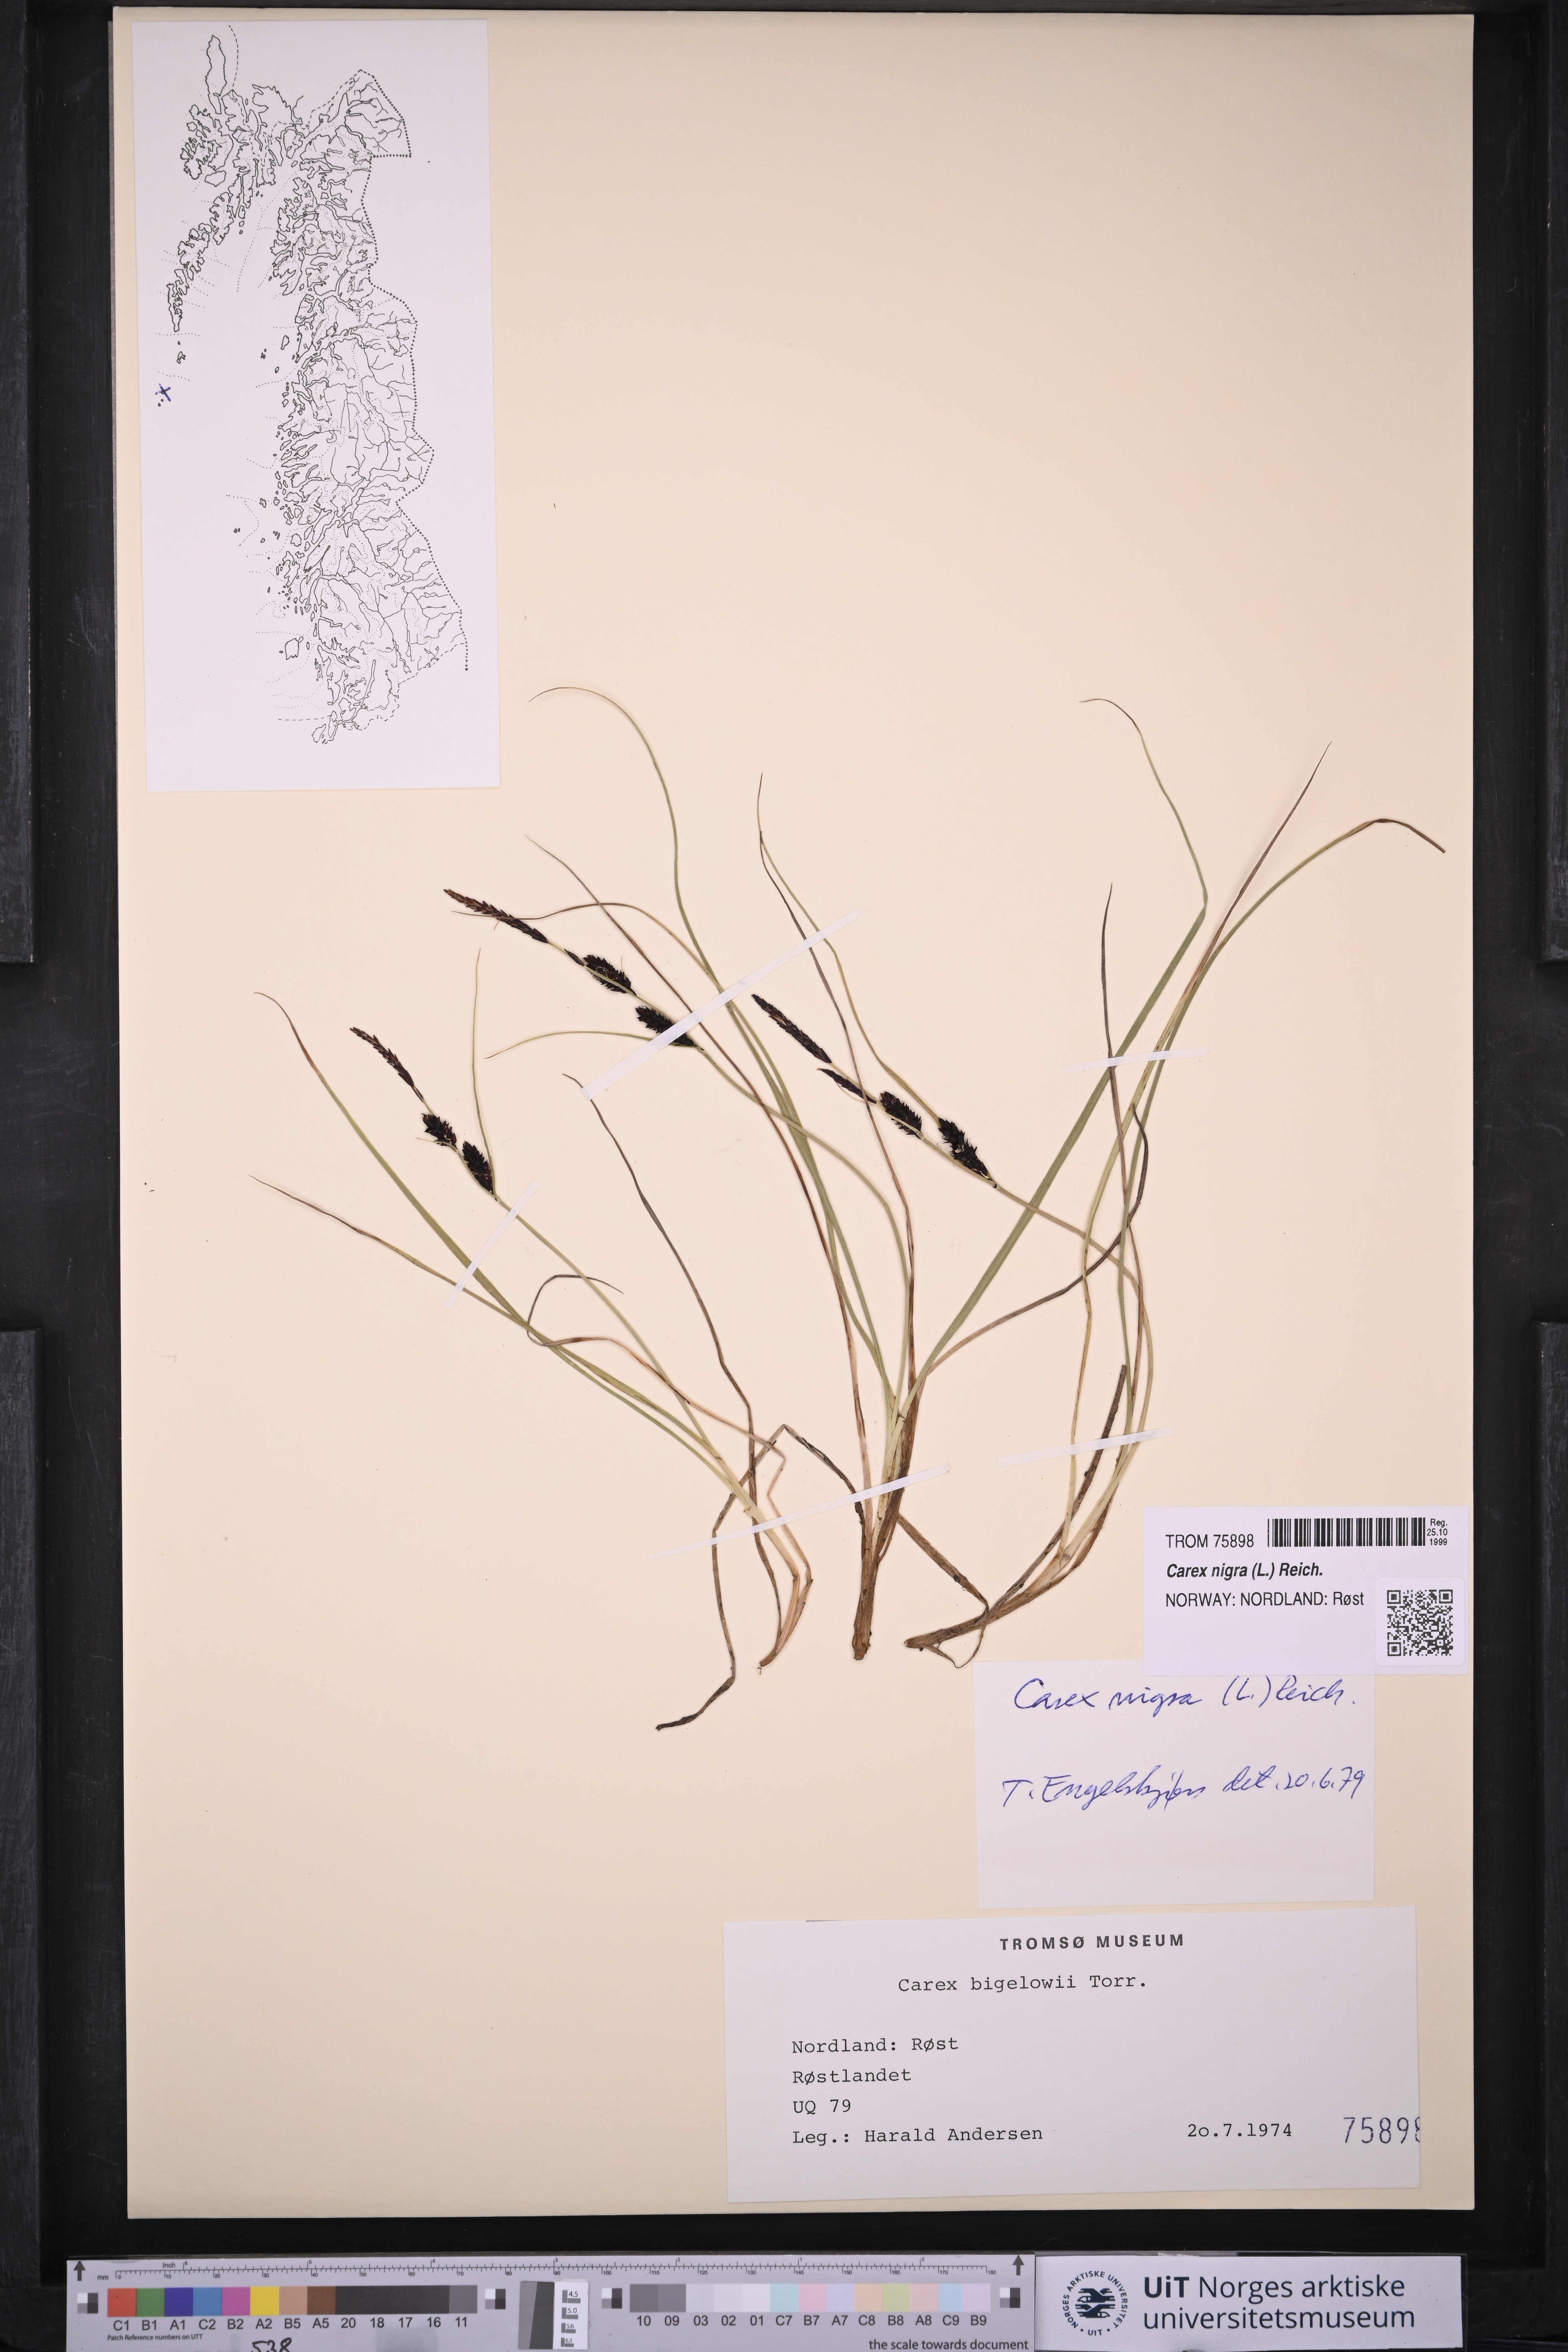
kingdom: Plantae
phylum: Tracheophyta
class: Liliopsida
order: Poales
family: Cyperaceae
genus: Carex
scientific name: Carex nigra
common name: Common sedge
